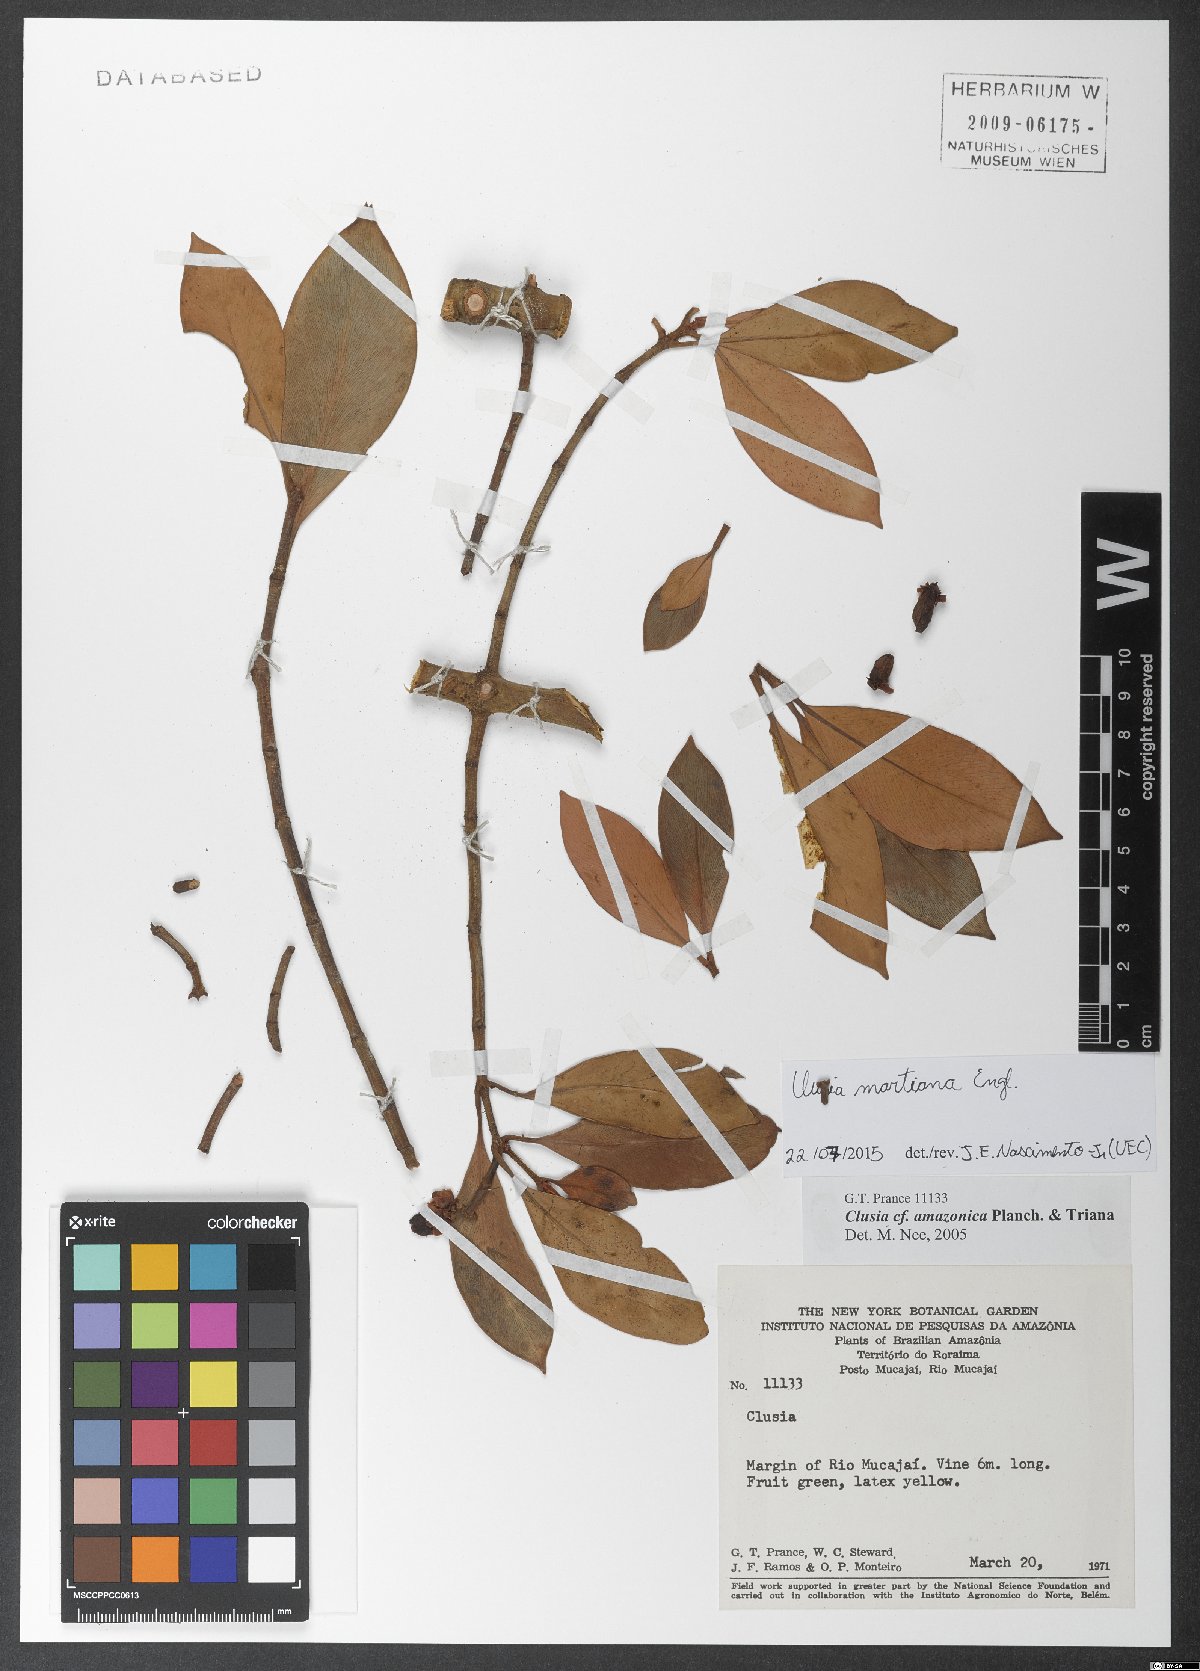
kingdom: Plantae
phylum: Tracheophyta
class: Magnoliopsida
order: Malpighiales
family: Clusiaceae
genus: Clusia
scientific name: Clusia martiana
